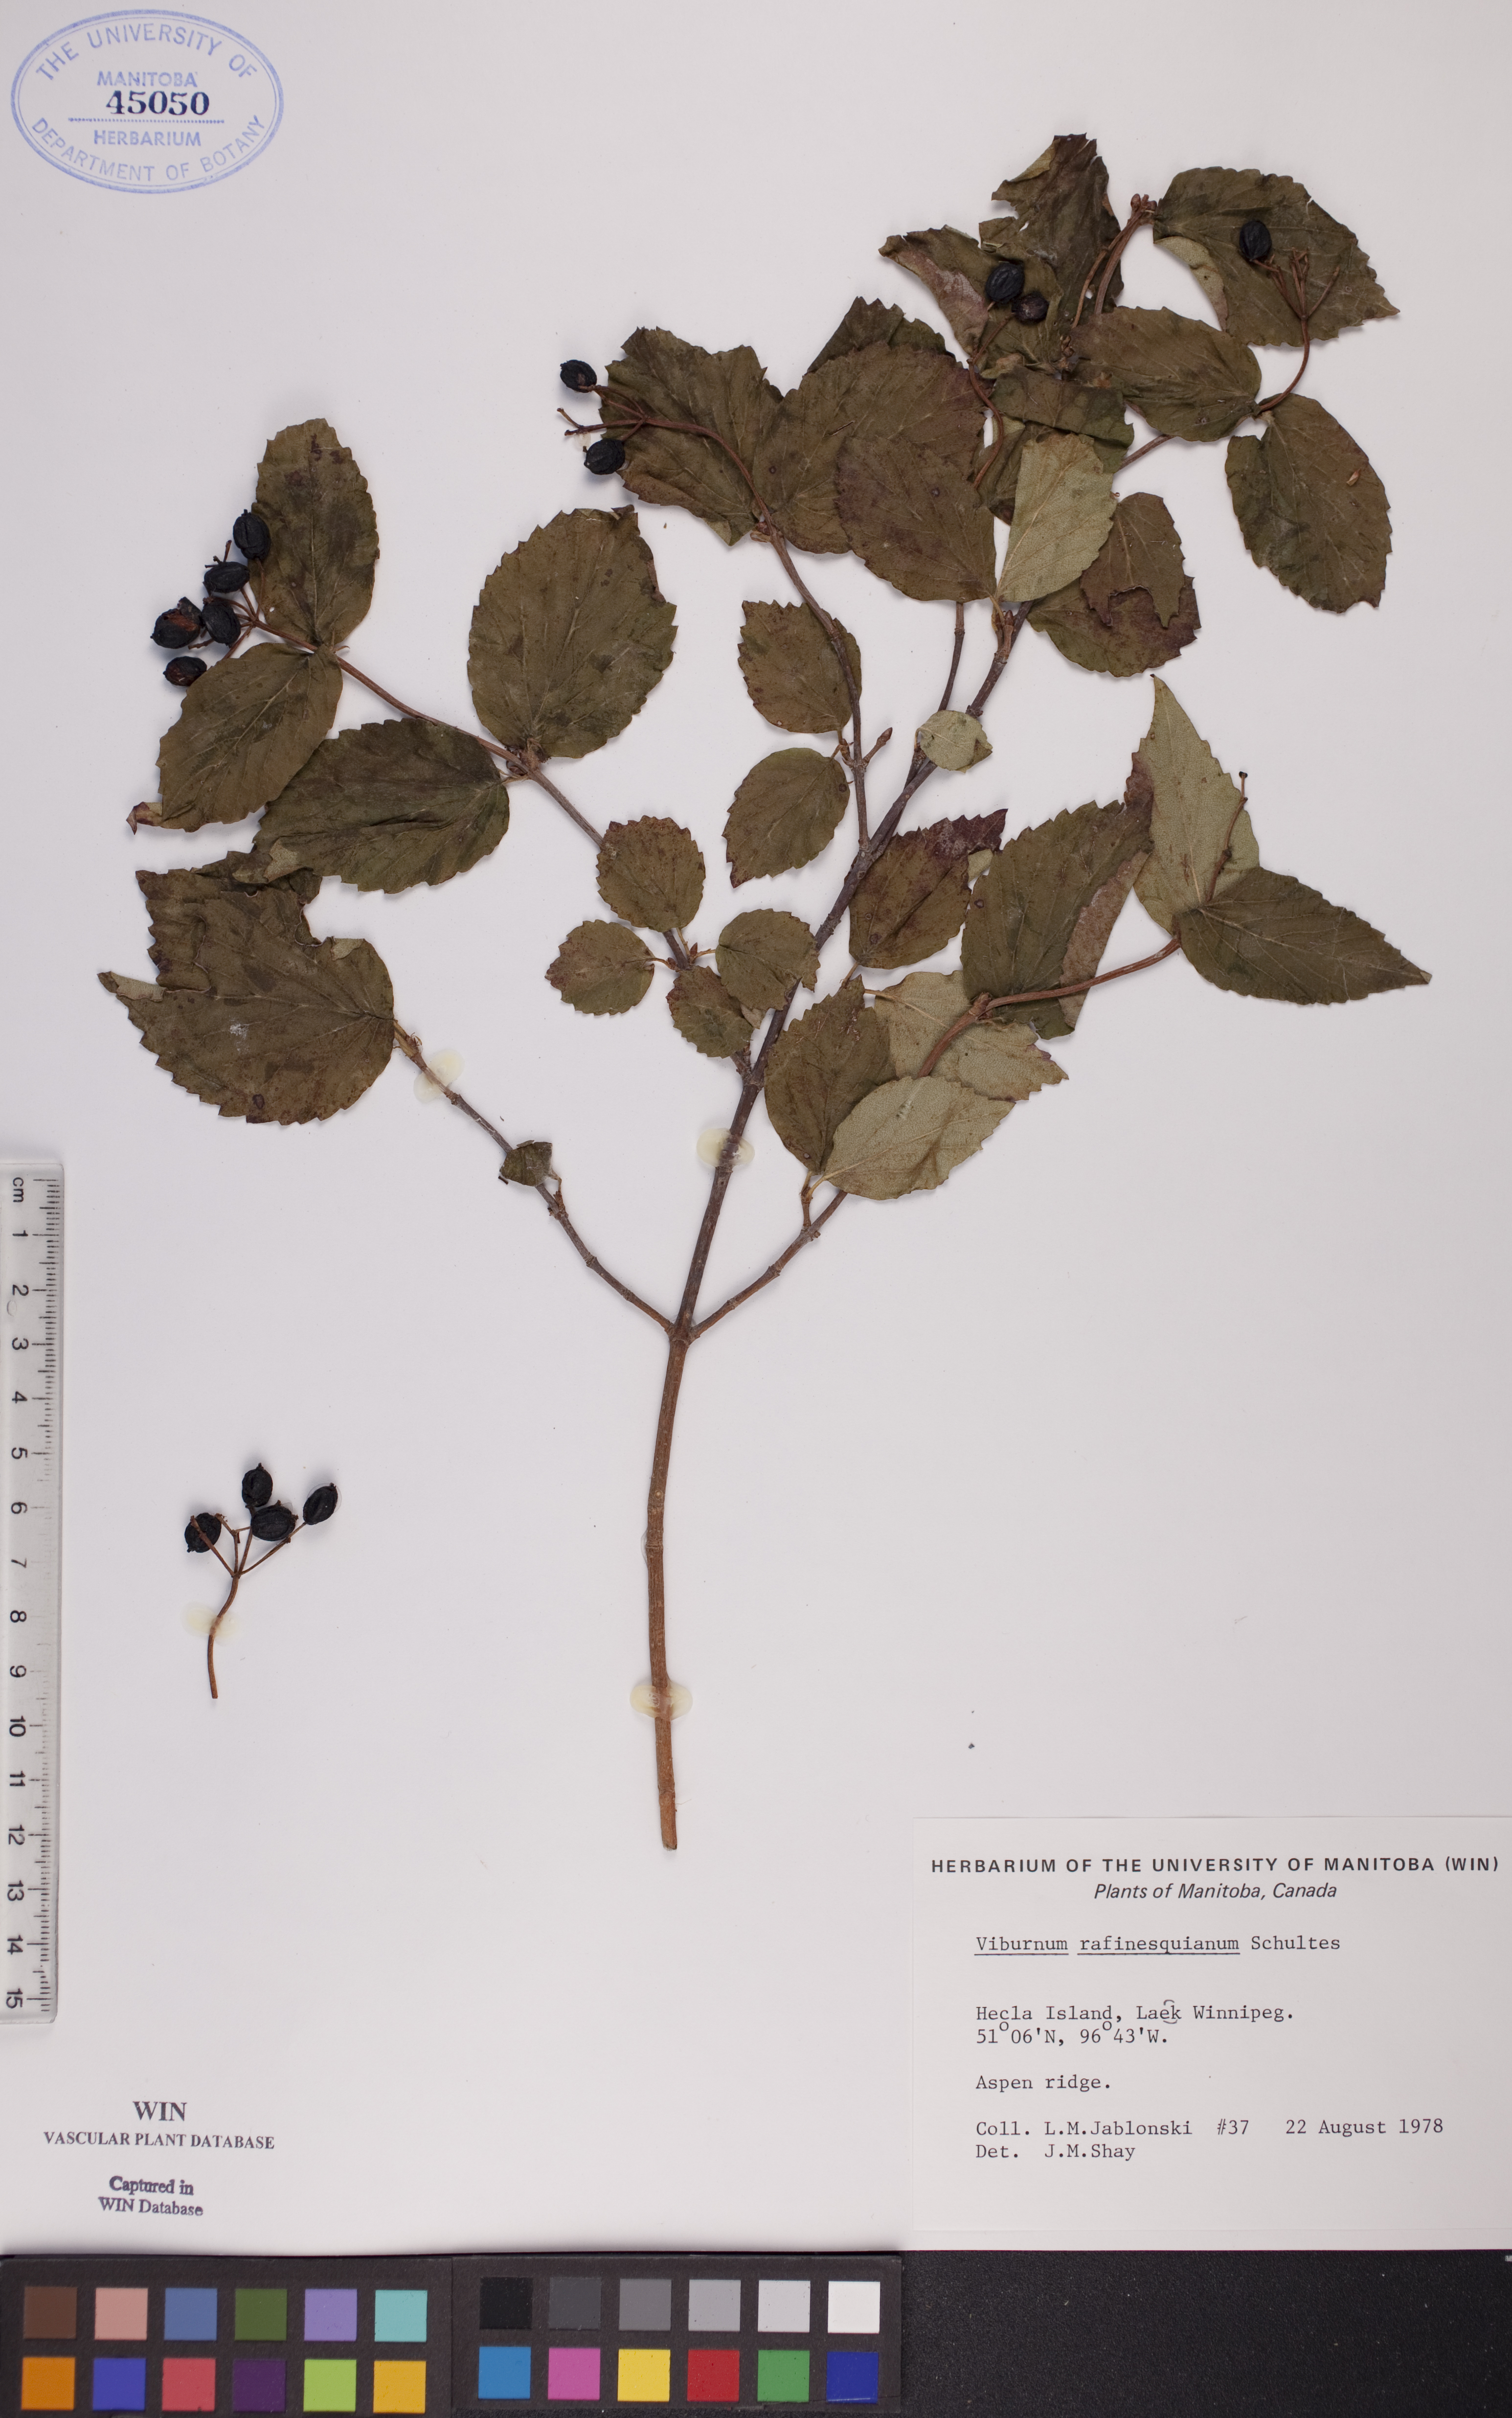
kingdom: Plantae
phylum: Tracheophyta
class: Magnoliopsida
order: Dipsacales
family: Viburnaceae
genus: Viburnum
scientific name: Viburnum rafinesquianum
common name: Downy arrow-wood
